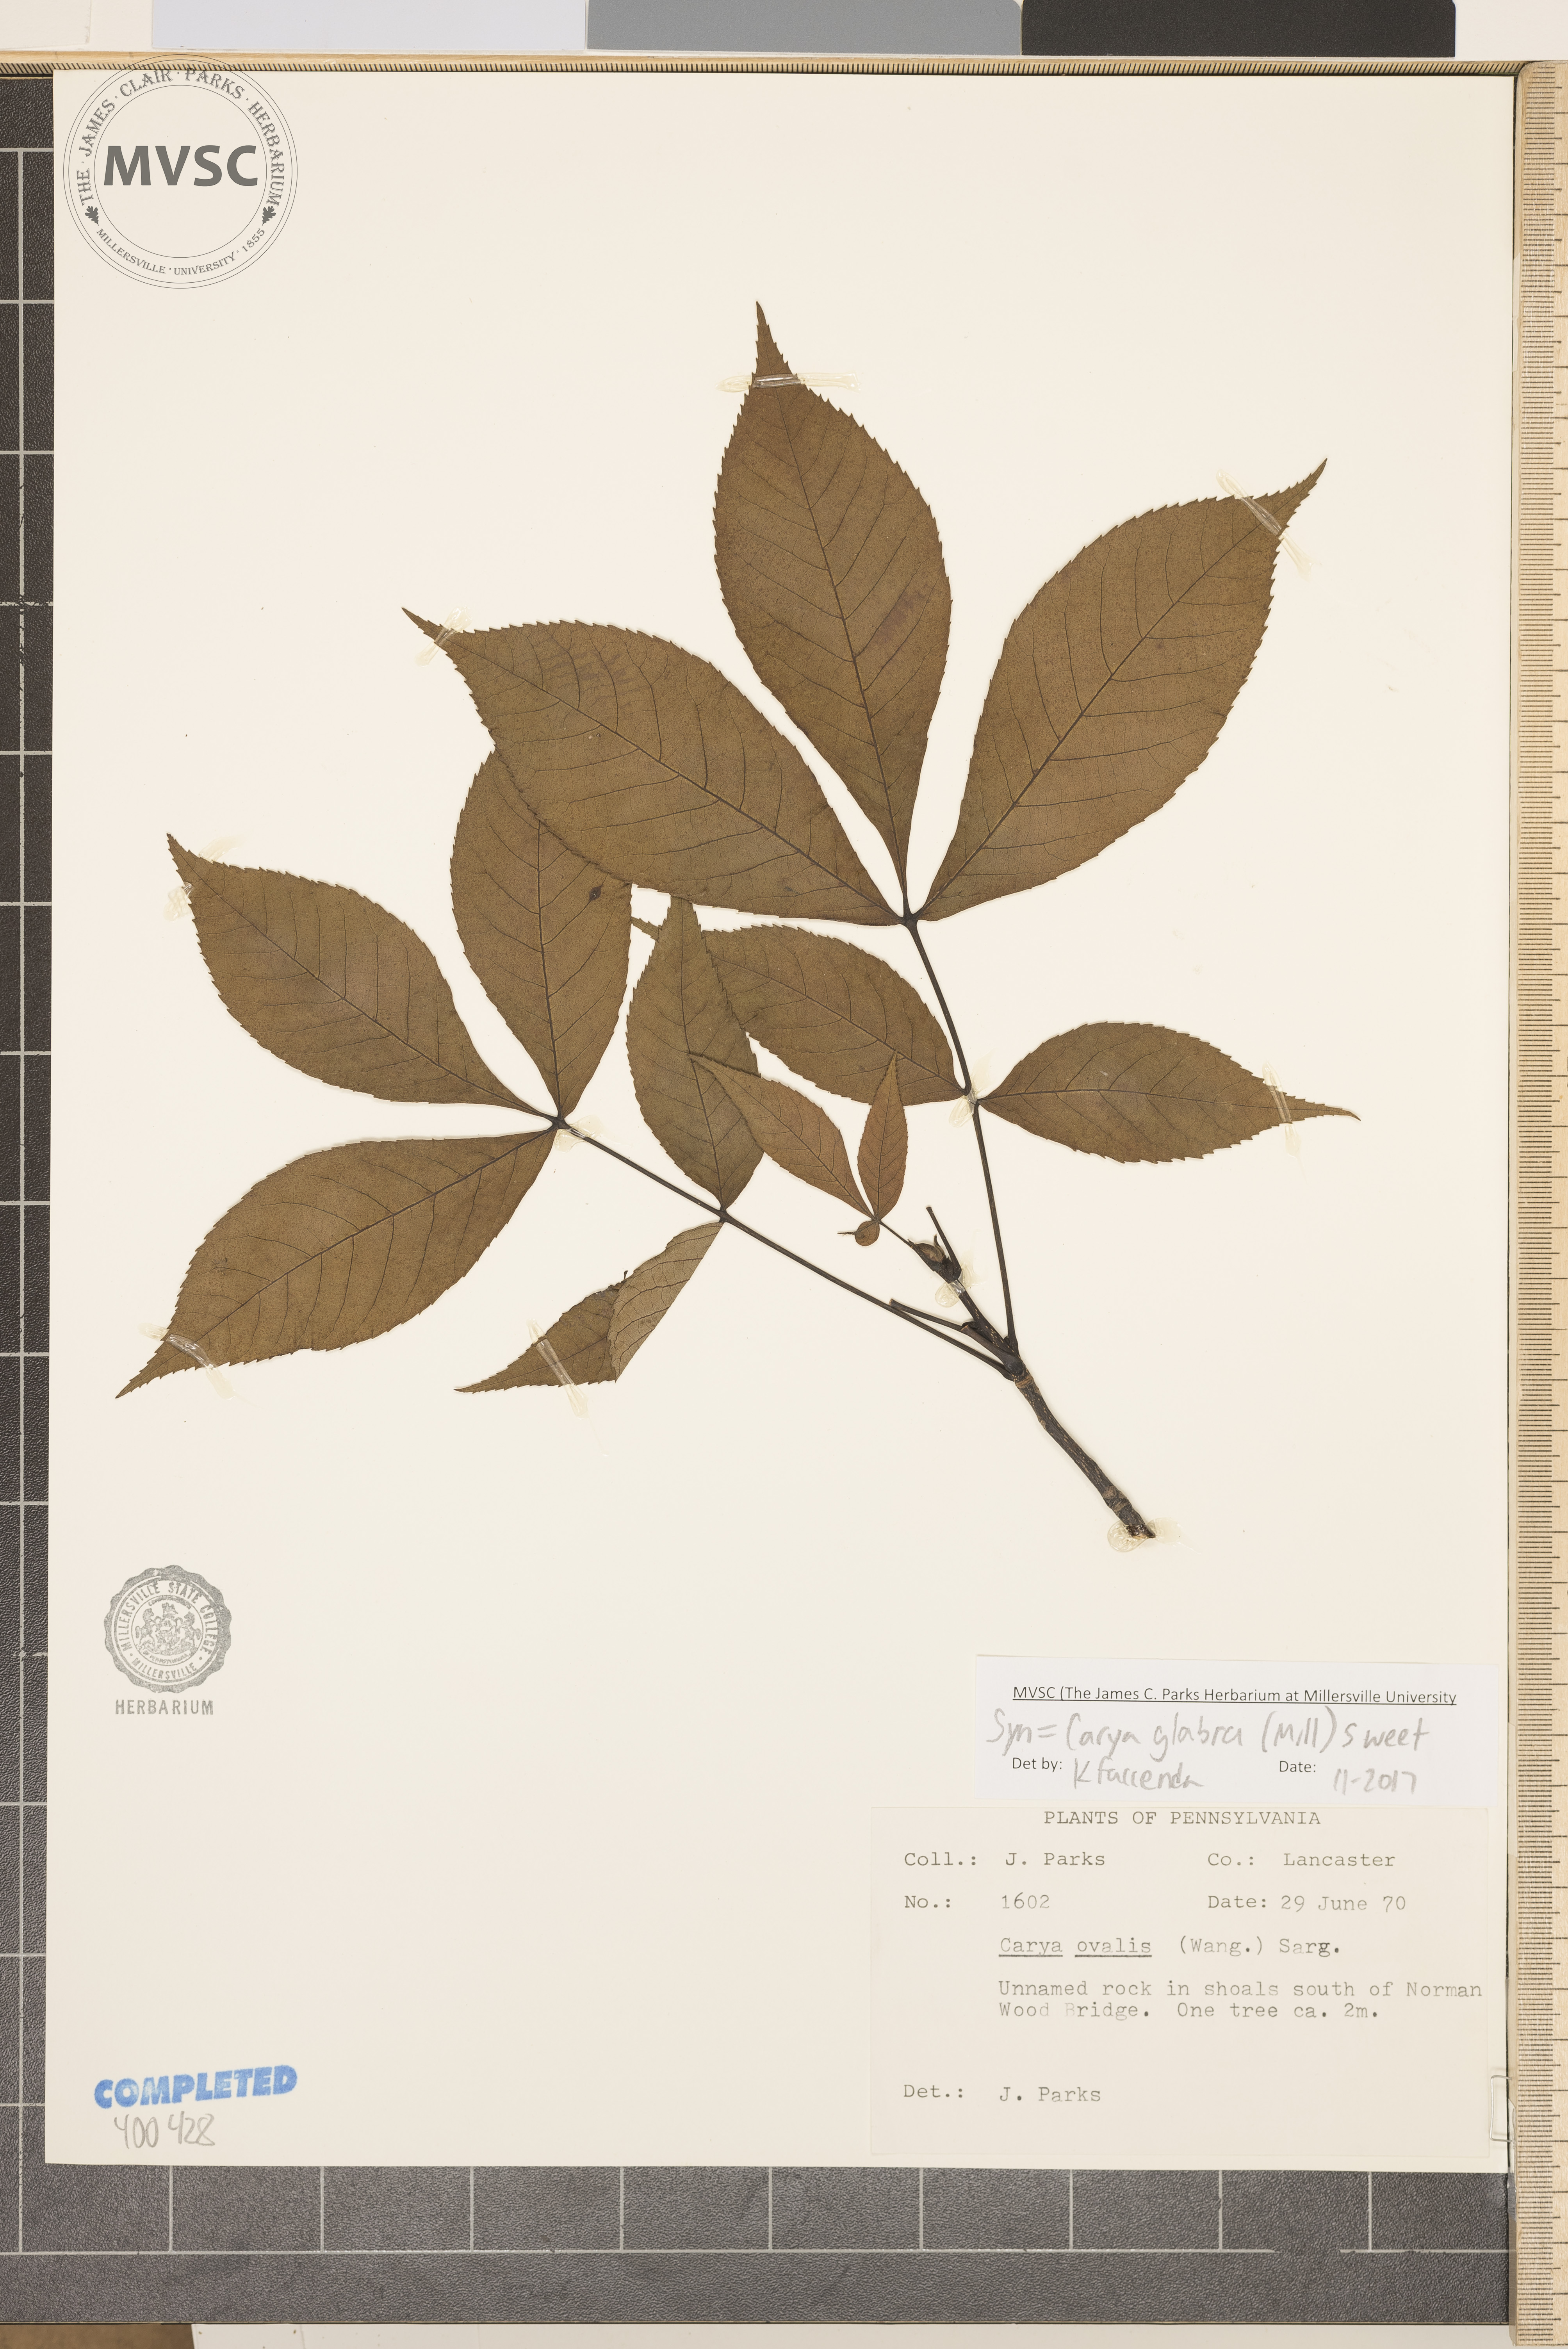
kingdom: Plantae
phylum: Tracheophyta
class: Magnoliopsida
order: Fagales
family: Juglandaceae
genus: Carya
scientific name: Carya glabra
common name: red hickory
